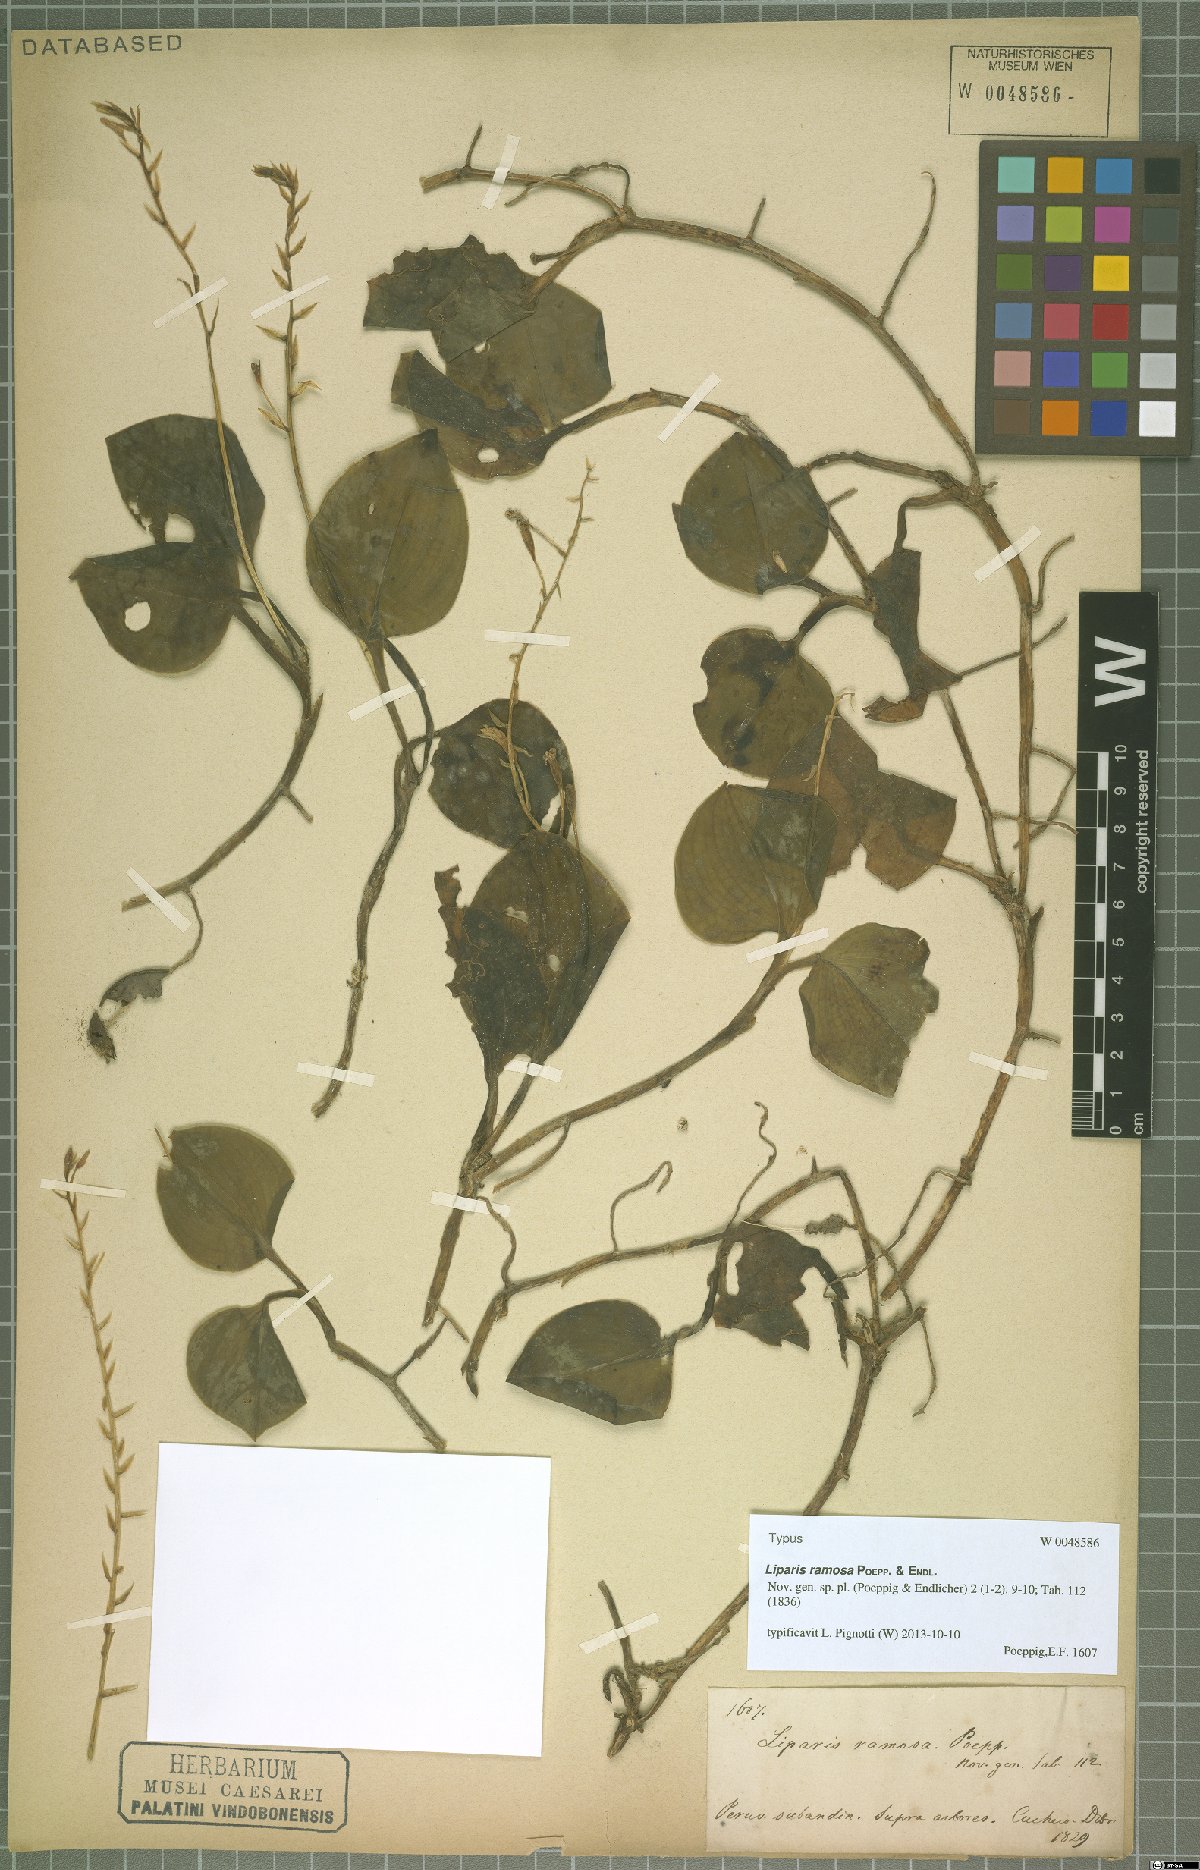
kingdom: Plantae
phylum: Tracheophyta
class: Liliopsida
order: Asparagales
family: Orchidaceae
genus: Liparis
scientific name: Liparis ramosa
